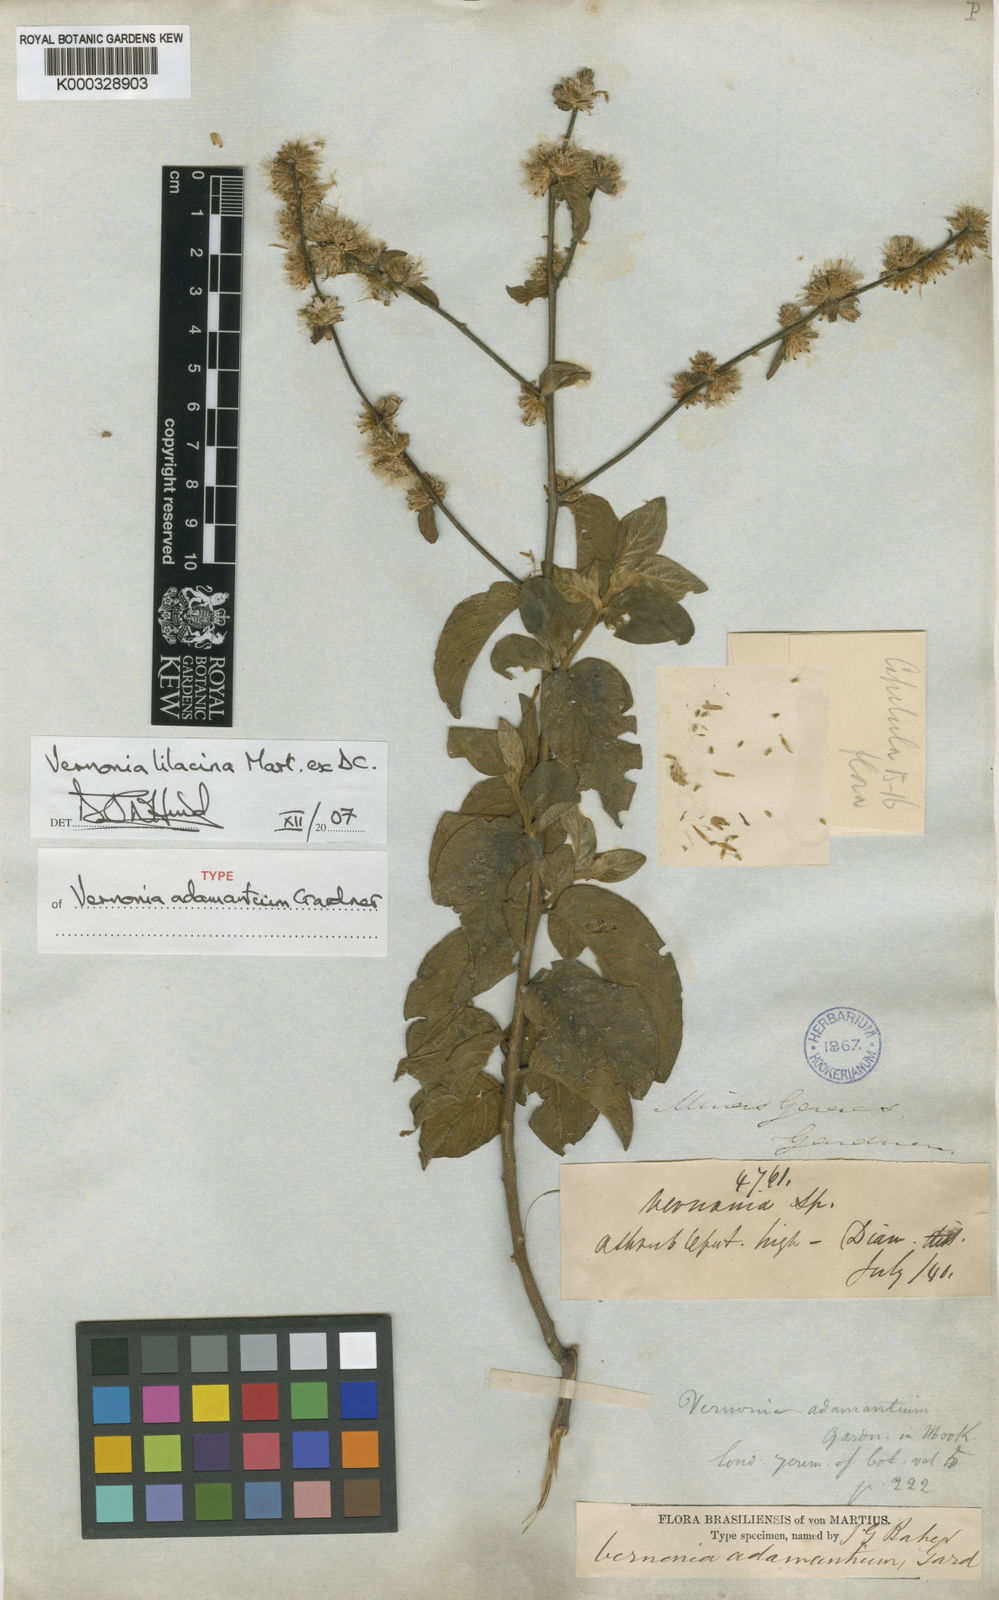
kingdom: Plantae
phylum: Tracheophyta
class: Magnoliopsida
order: Asterales
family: Asteraceae
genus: Lepidaploa
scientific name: Lepidaploa lilacina
